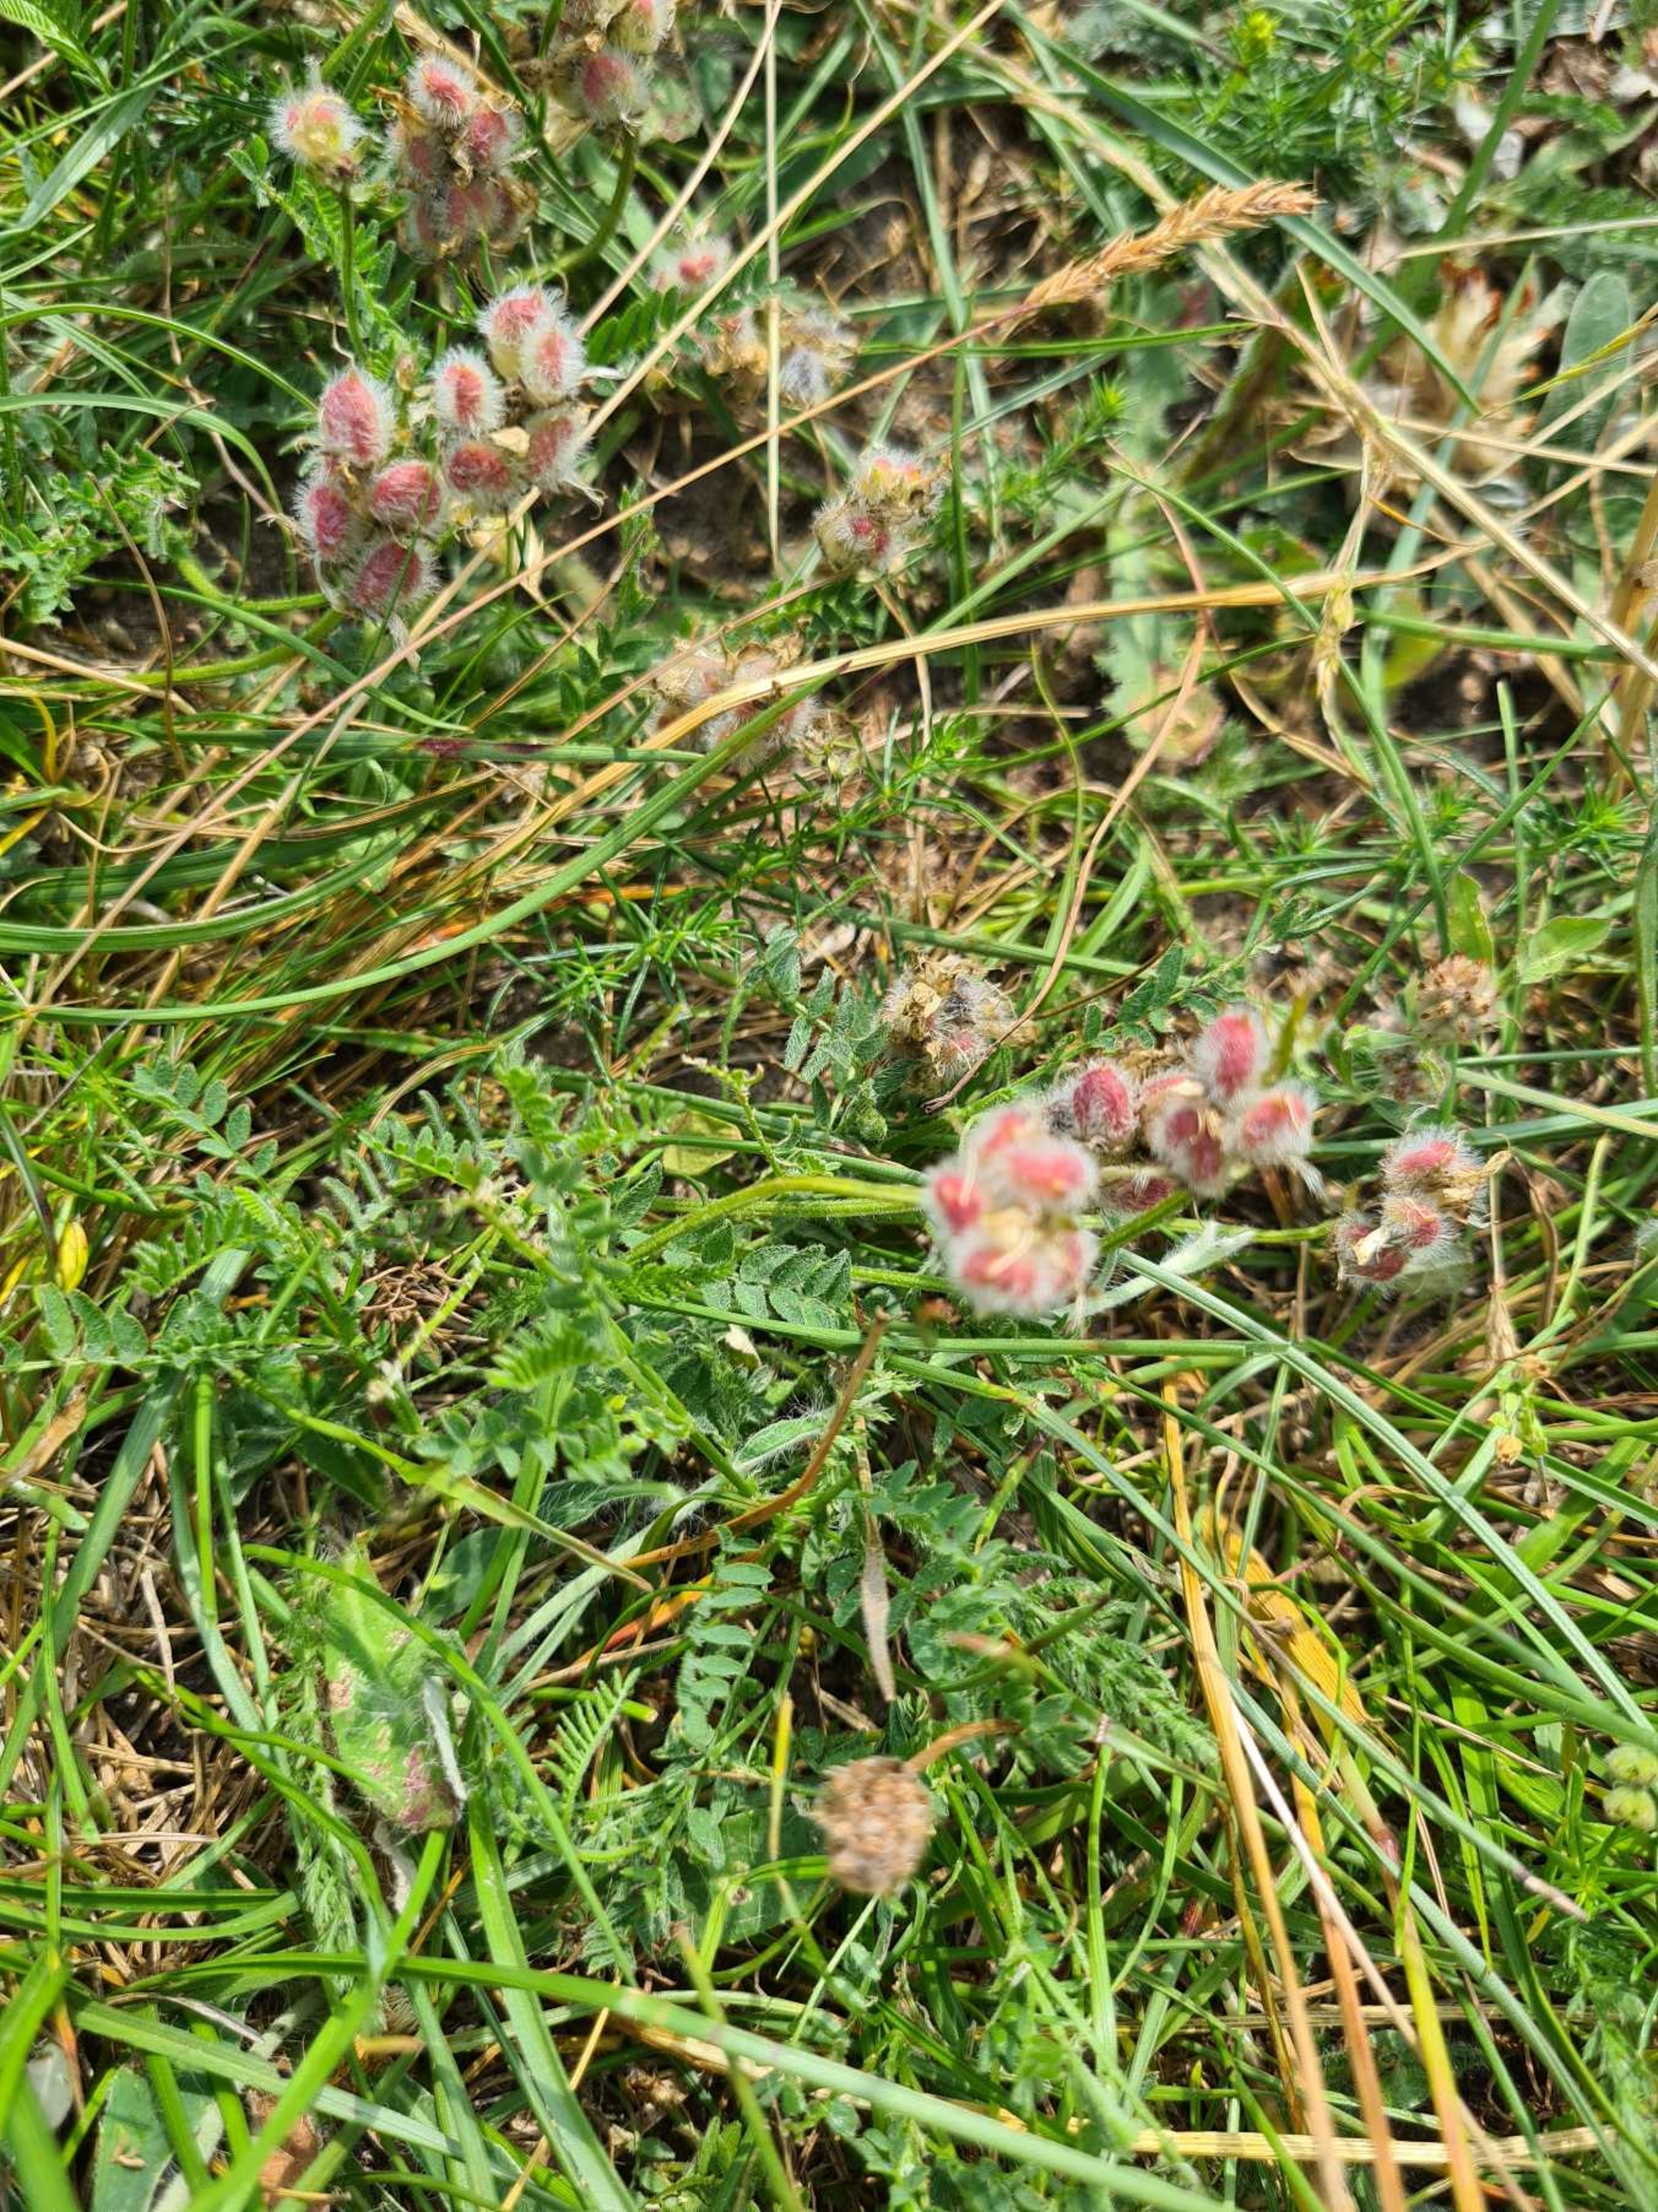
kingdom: Plantae
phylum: Tracheophyta
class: Magnoliopsida
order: Fabales
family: Fabaceae
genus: Astragalus
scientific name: Astragalus danicus
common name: Dansk astragel
